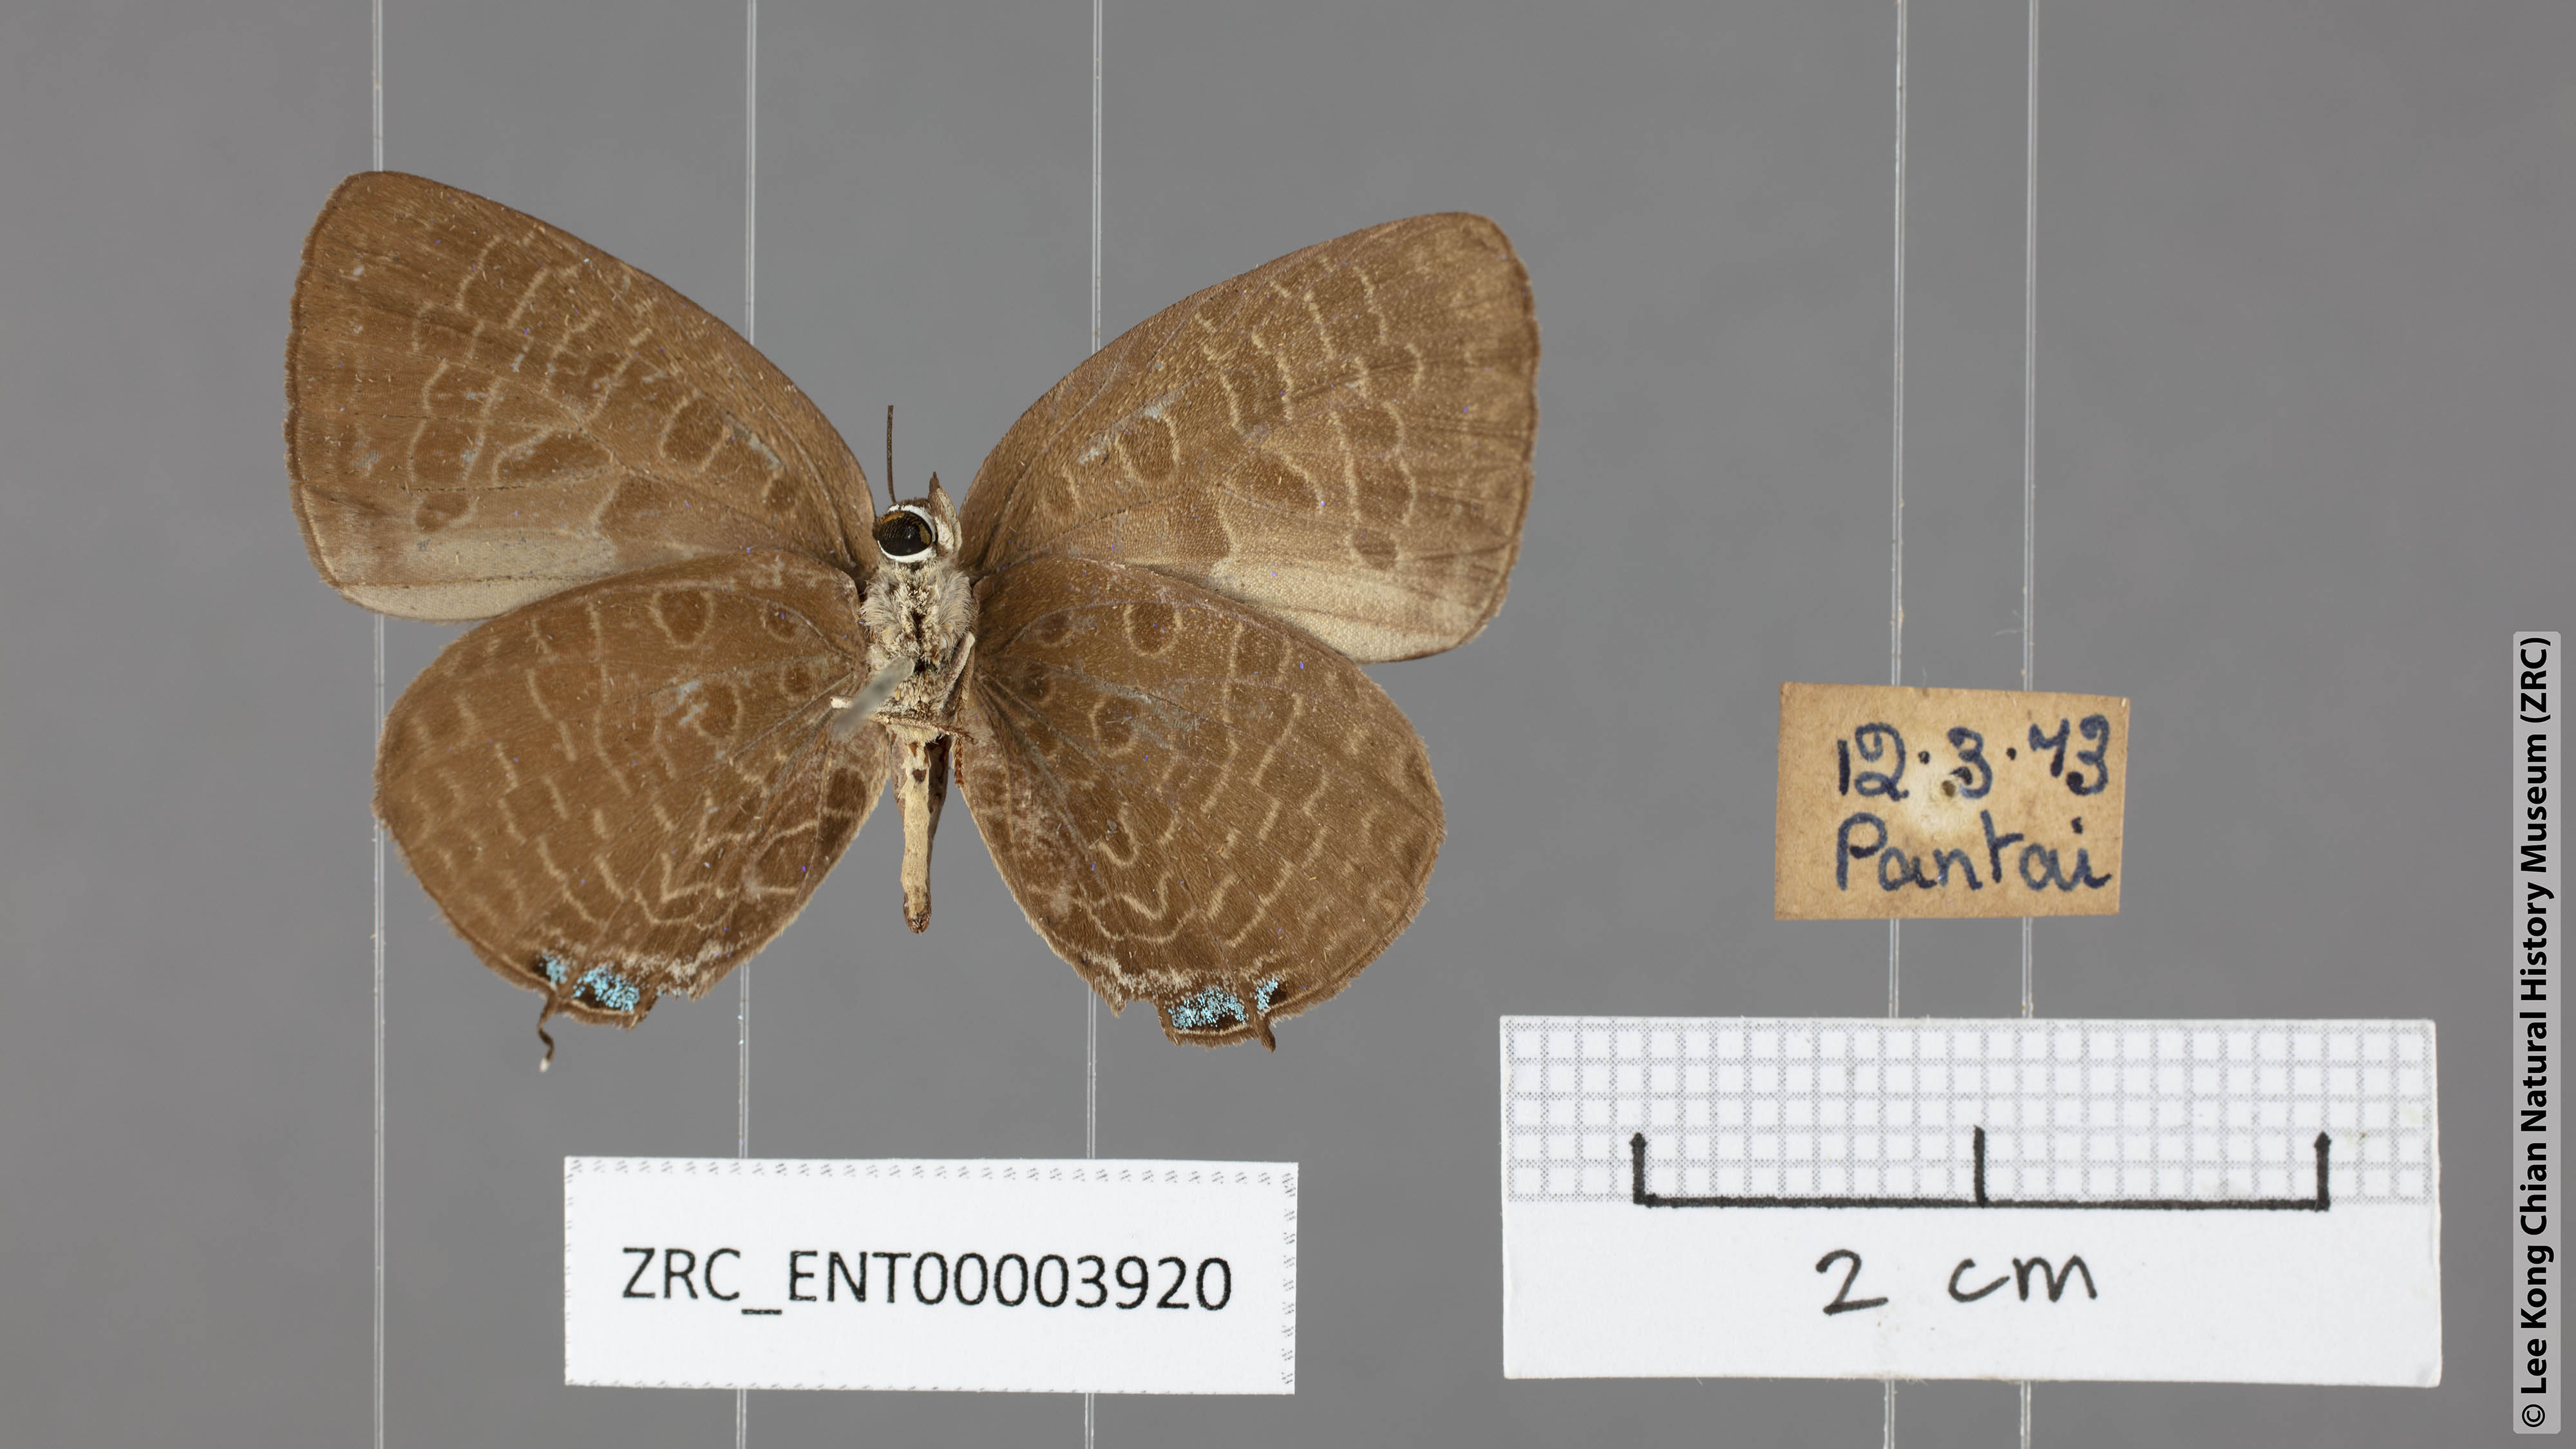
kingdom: Animalia
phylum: Arthropoda
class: Insecta
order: Lepidoptera
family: Lycaenidae
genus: Arhopala
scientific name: Arhopala elopura
